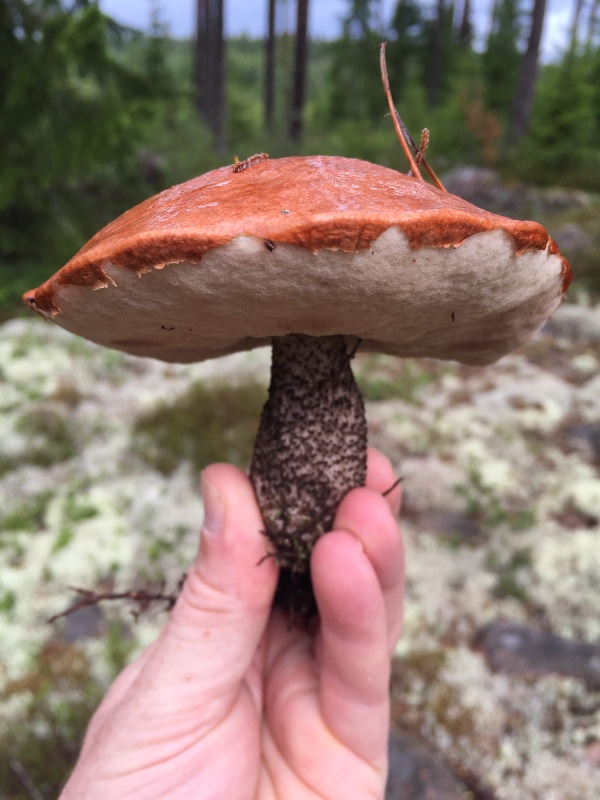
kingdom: Fungi
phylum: Basidiomycota
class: Agaricomycetes
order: Boletales
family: Boletaceae
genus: Leccinum
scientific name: Leccinum vulpinum
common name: fyrre-skælrørhat
